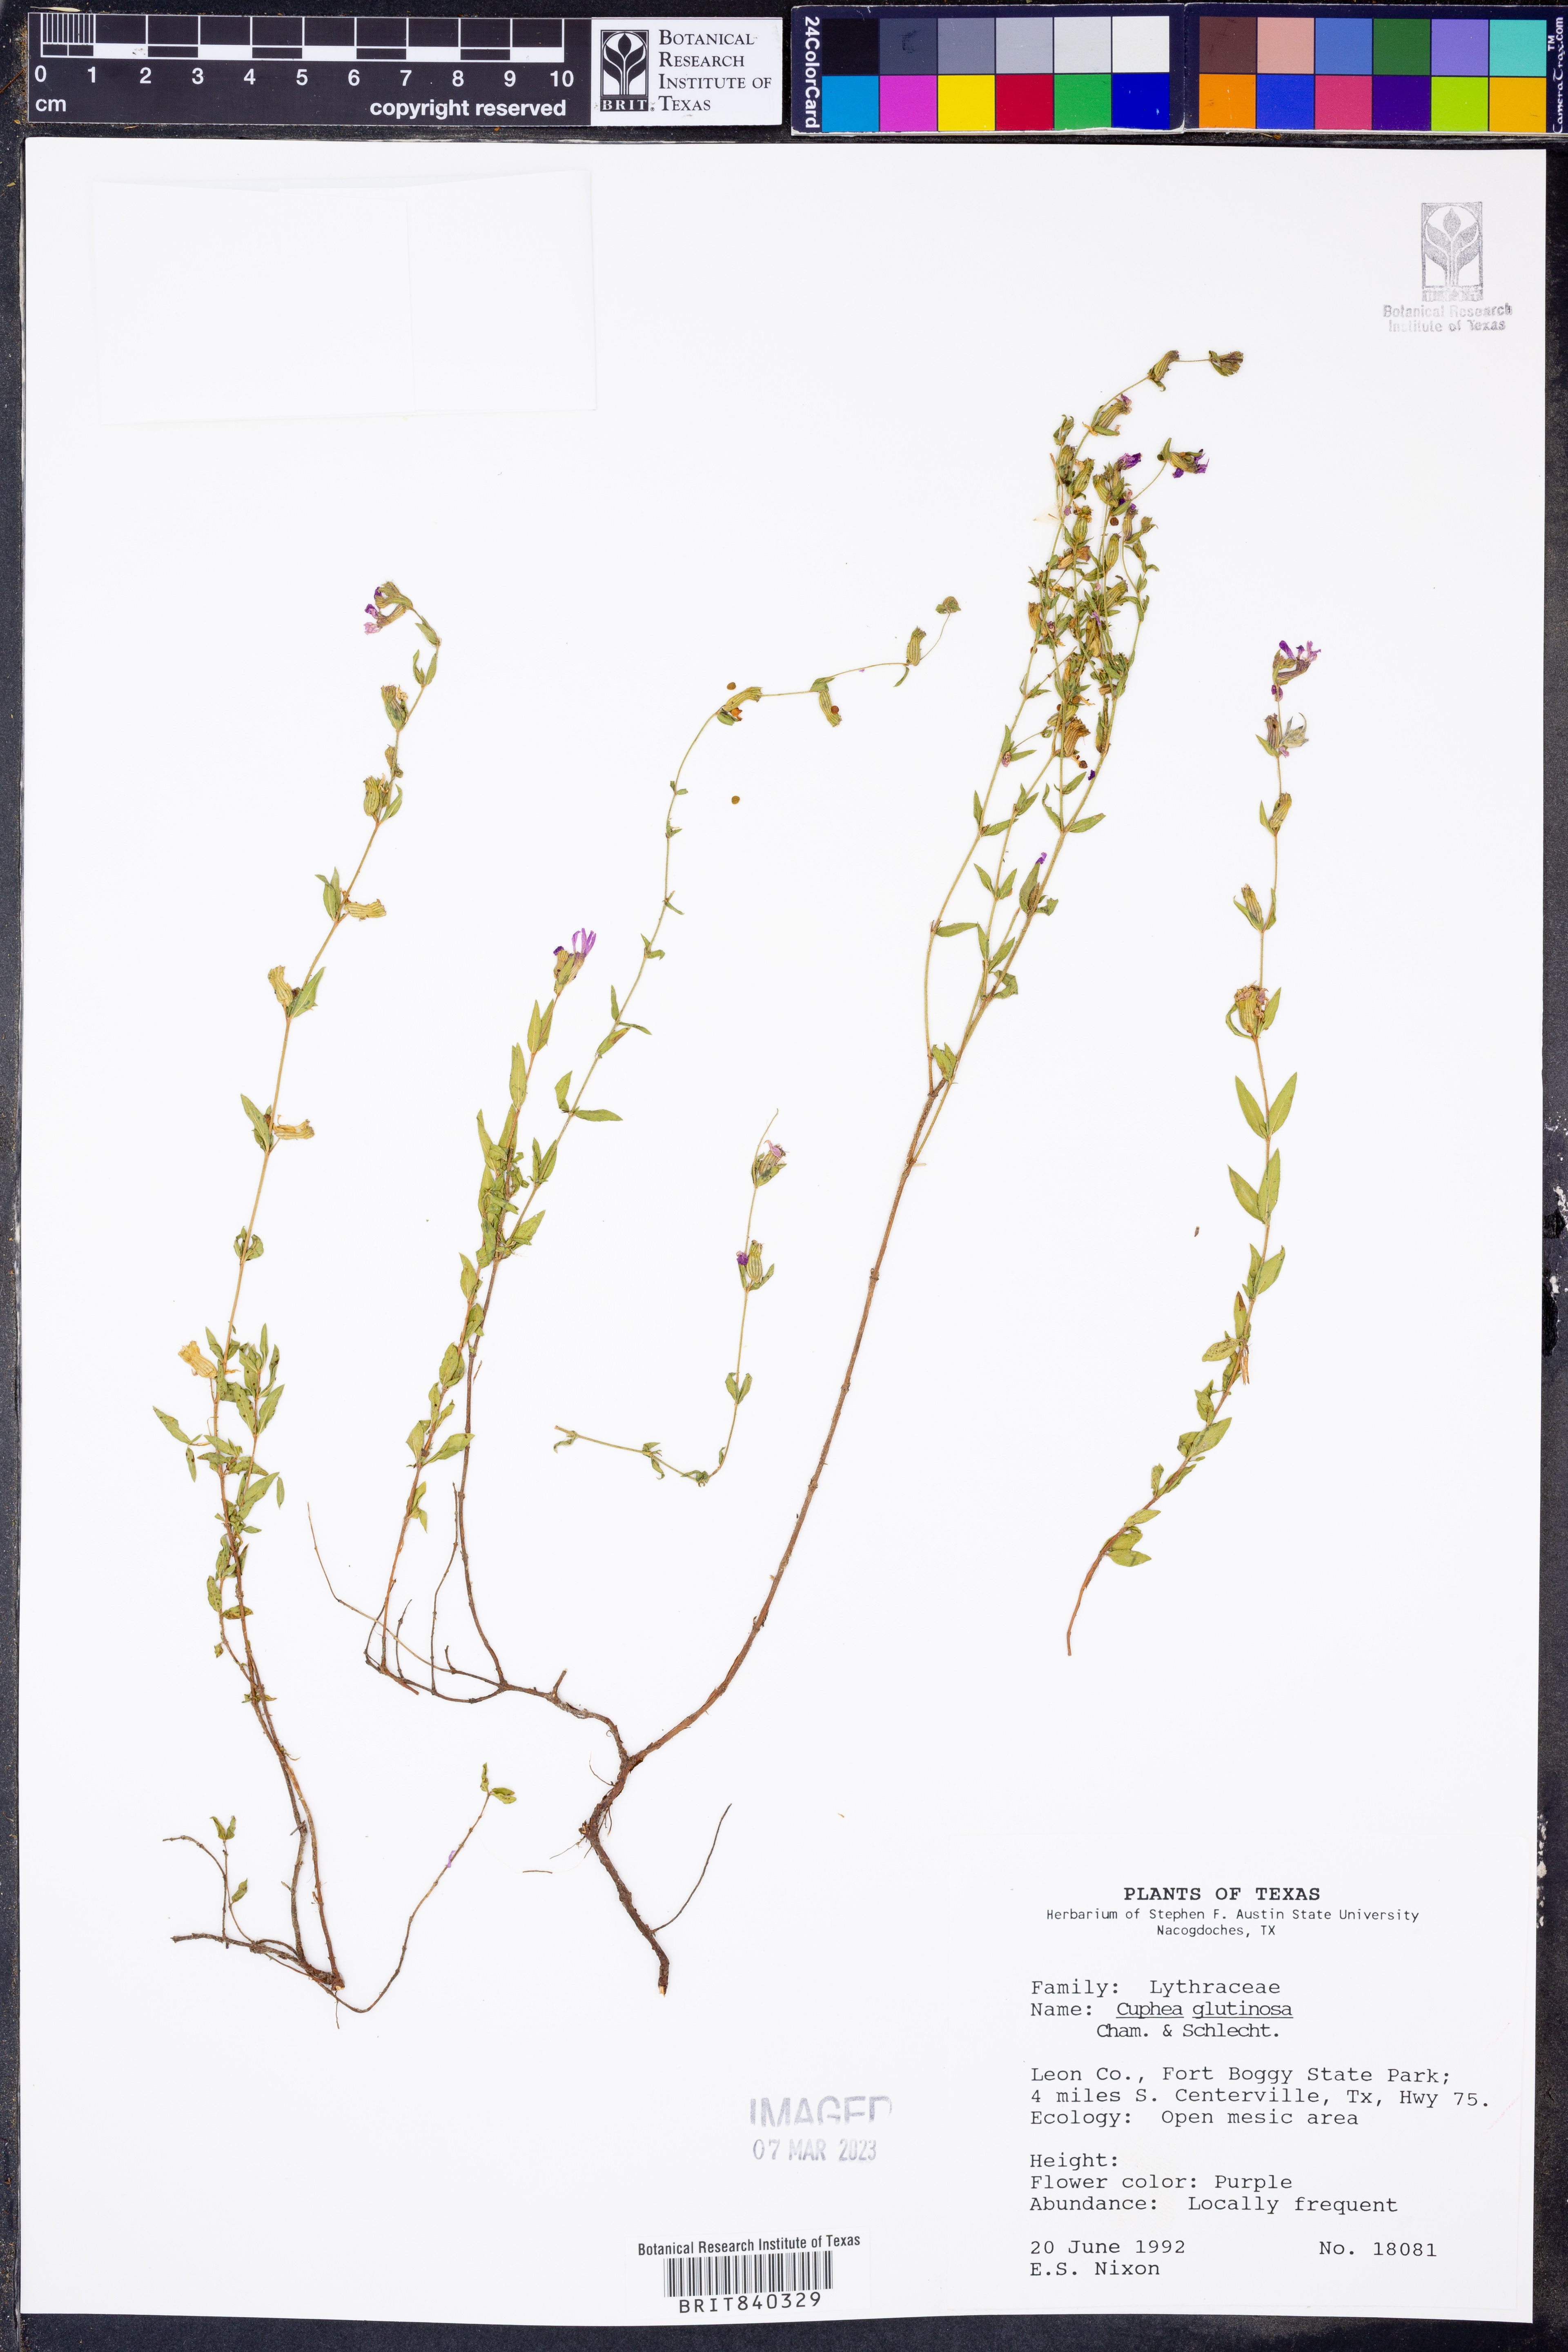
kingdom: Plantae
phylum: Tracheophyta
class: Magnoliopsida
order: Myrtales
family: Lythraceae
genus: Cuphea
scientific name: Cuphea glutinosa
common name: Sticky waxweed
